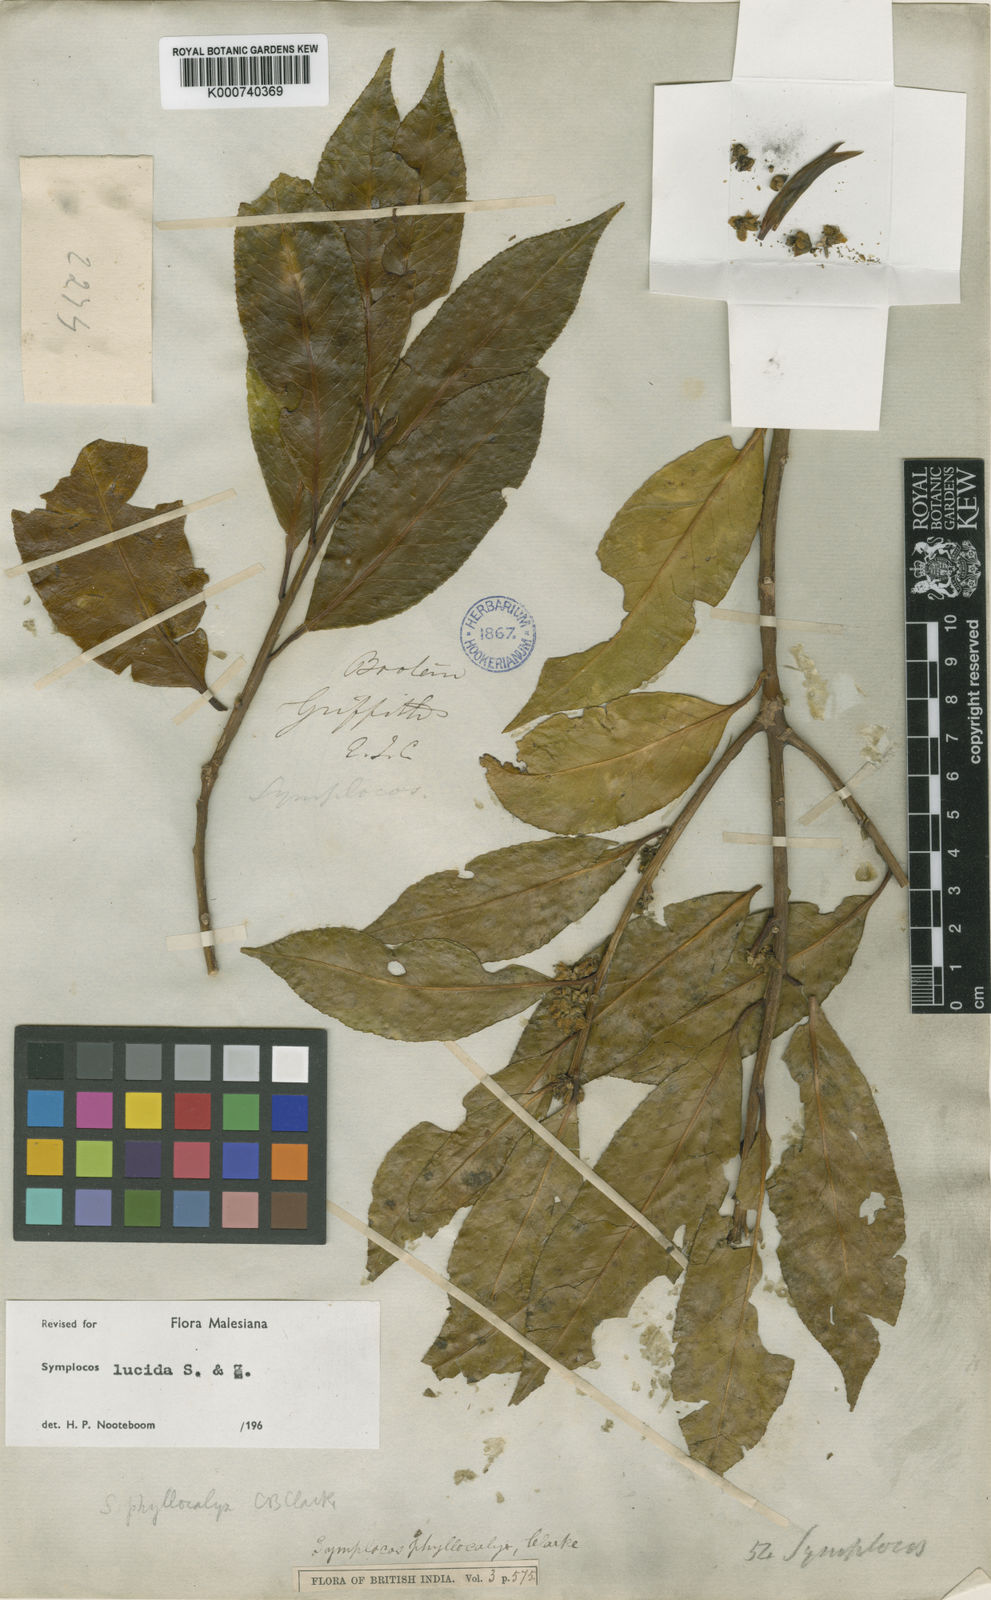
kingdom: Plantae
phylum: Tracheophyta
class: Magnoliopsida
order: Ericales
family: Symplocaceae
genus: Symplocos
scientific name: Symplocos
